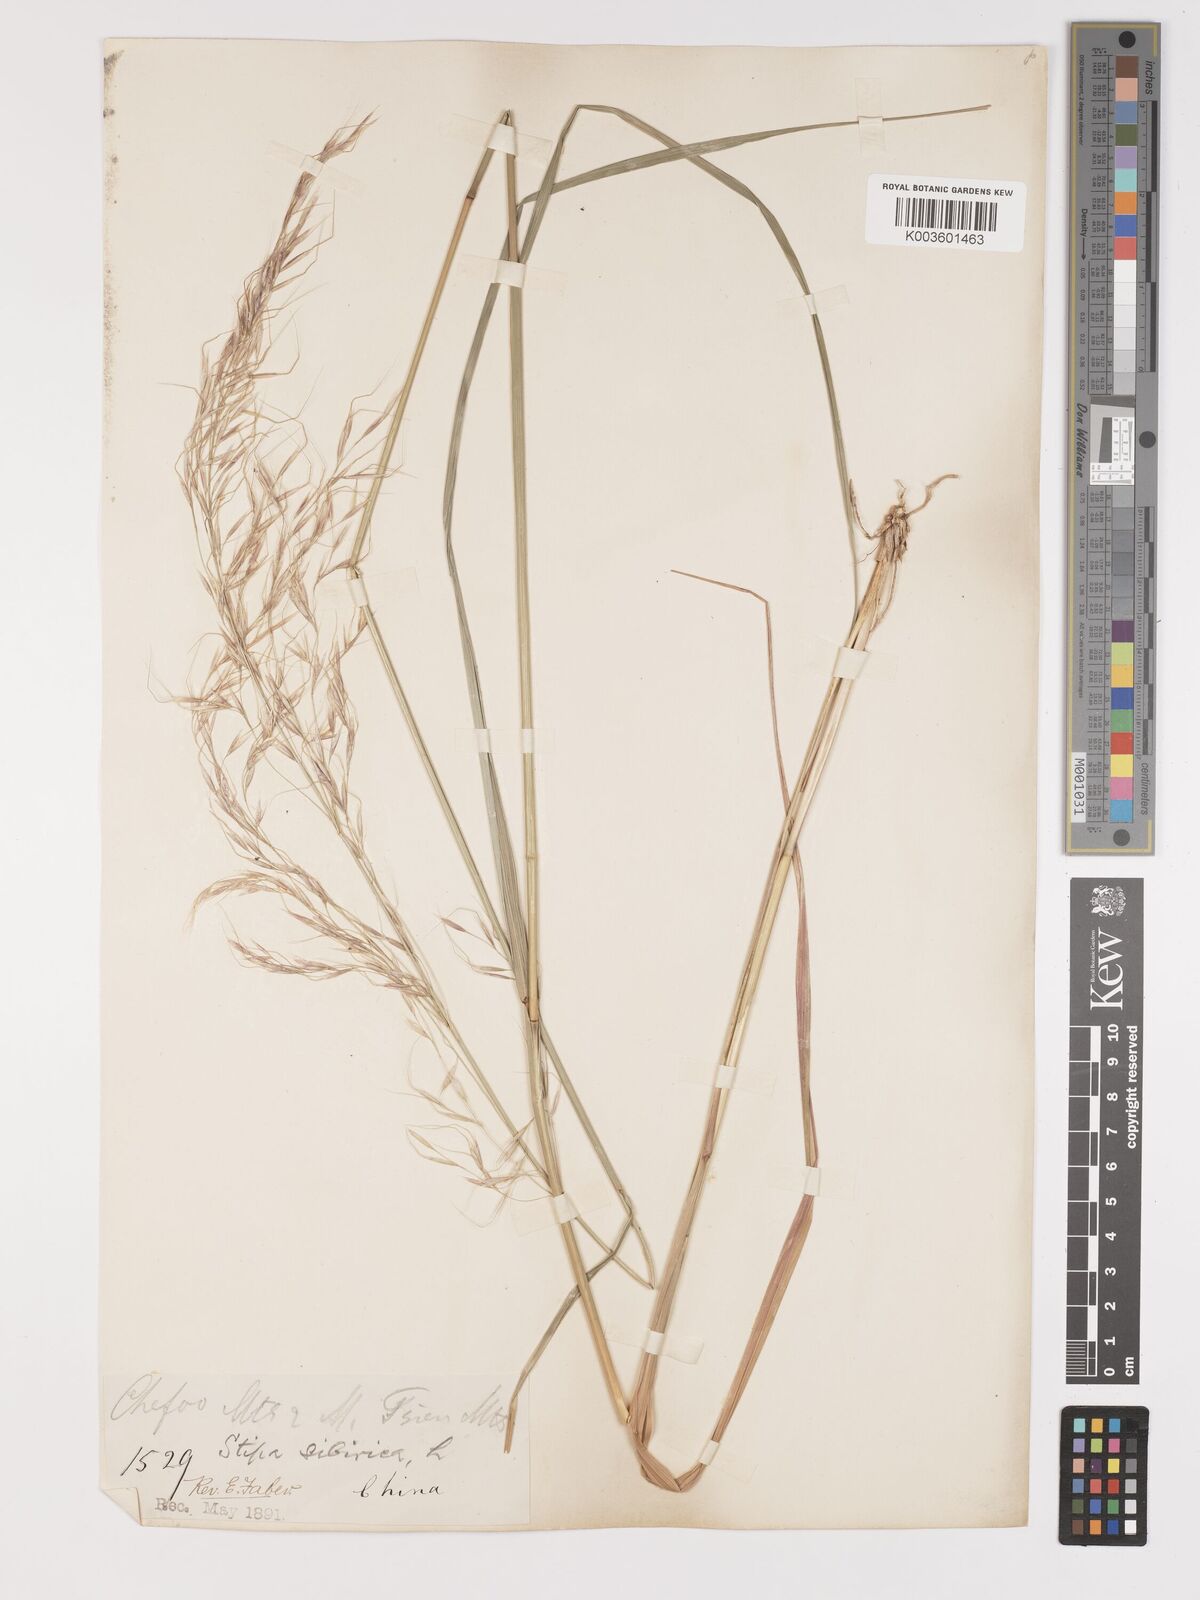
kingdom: Plantae
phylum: Tracheophyta
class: Liliopsida
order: Poales
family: Poaceae
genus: Achnatherum
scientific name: Achnatherum pekinense
